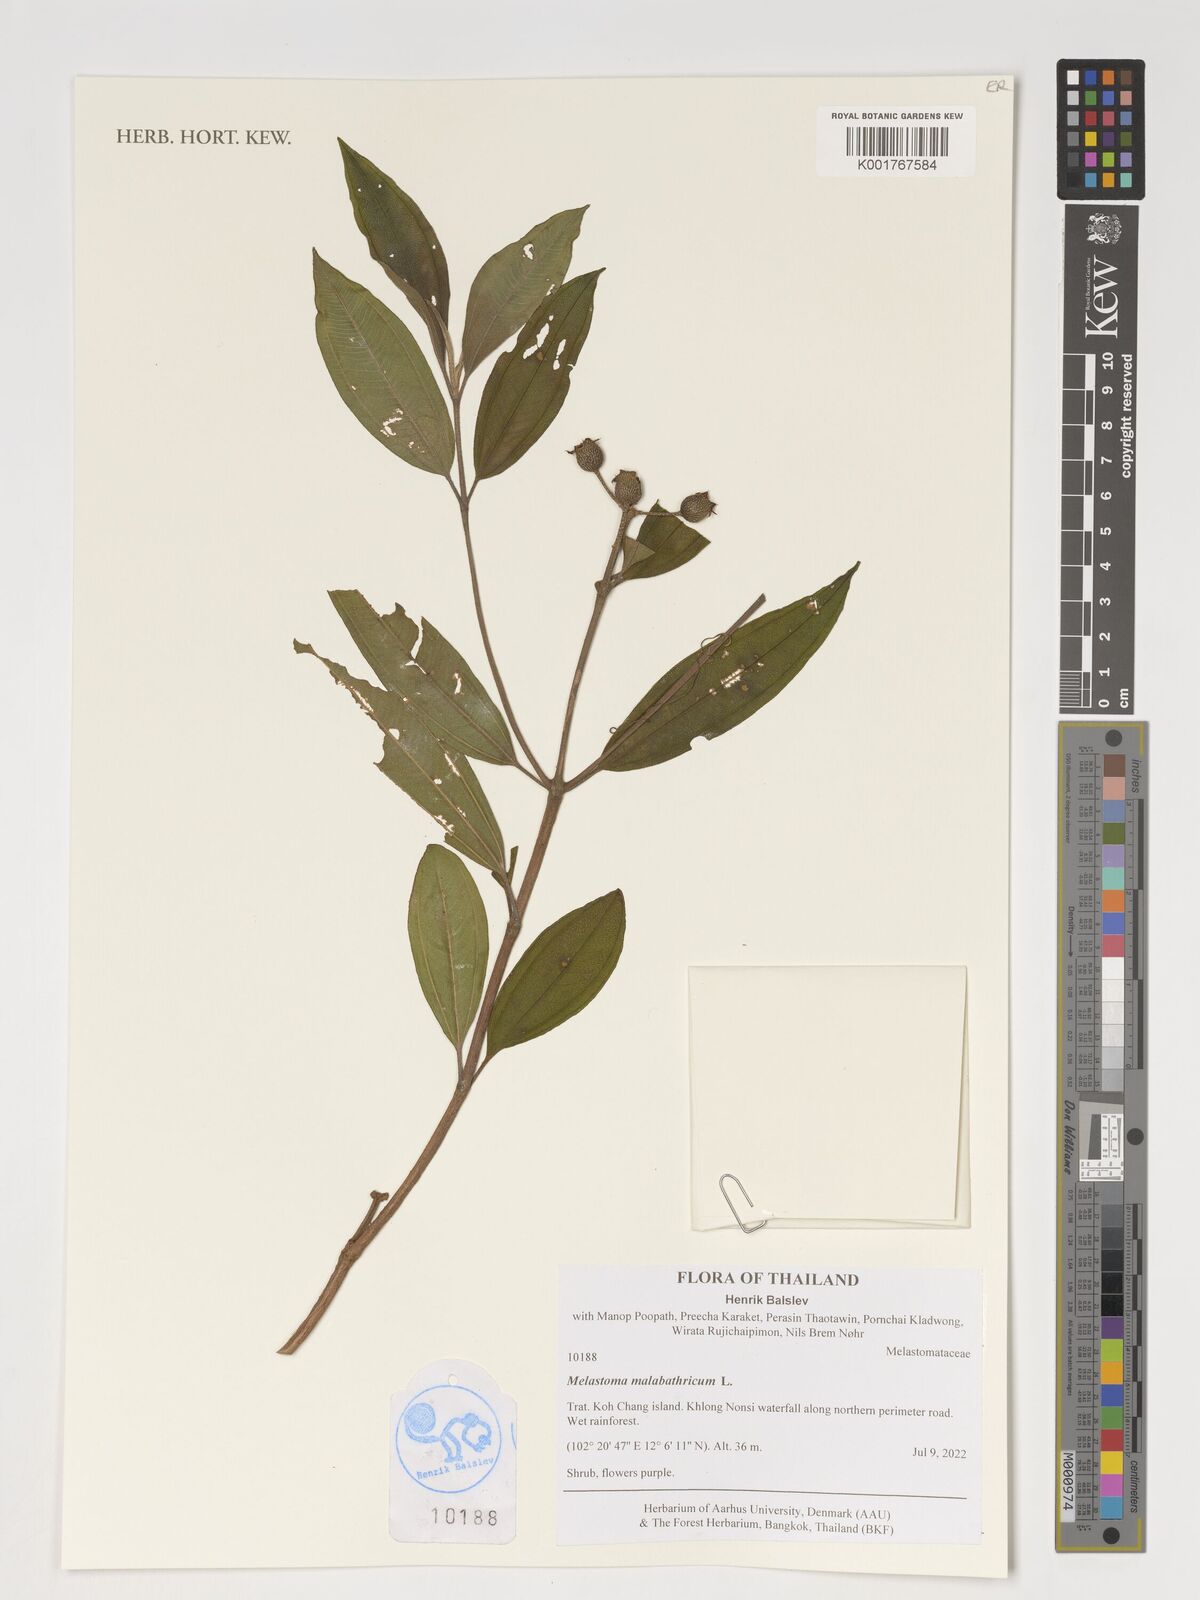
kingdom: Plantae
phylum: Tracheophyta
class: Magnoliopsida
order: Myrtales
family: Melastomataceae
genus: Melastoma
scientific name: Melastoma malabathricum
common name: Indian-rhododendron
